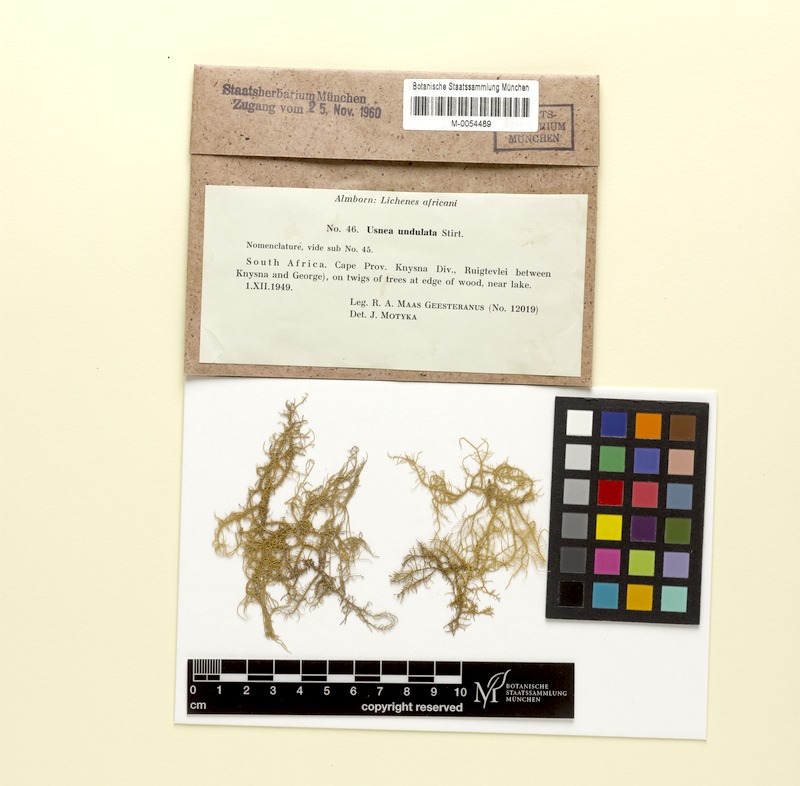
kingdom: Fungi
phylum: Ascomycota
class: Lecanoromycetes
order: Lecanorales
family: Parmeliaceae
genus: Usnea
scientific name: Usnea angulata
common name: Old-man’s beard lichen
